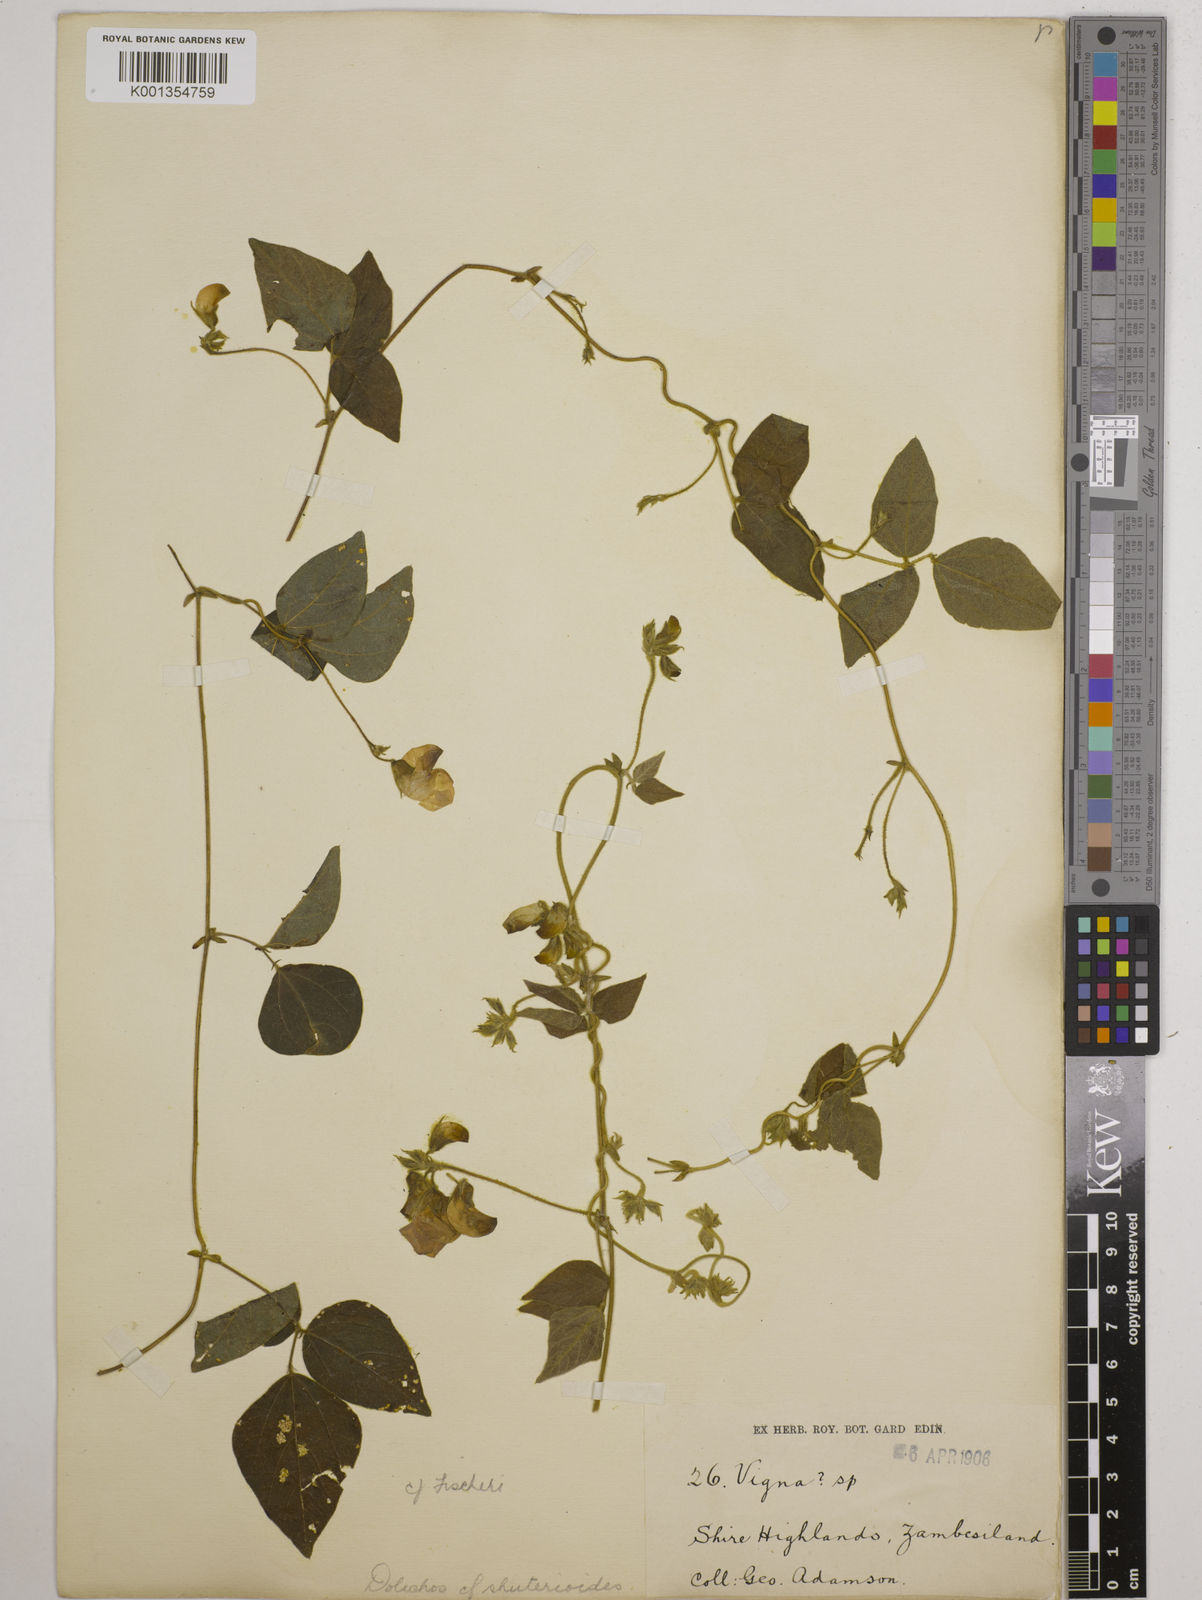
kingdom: Plantae
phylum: Tracheophyta
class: Magnoliopsida
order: Fabales
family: Fabaceae
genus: Dolichos
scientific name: Dolichos
